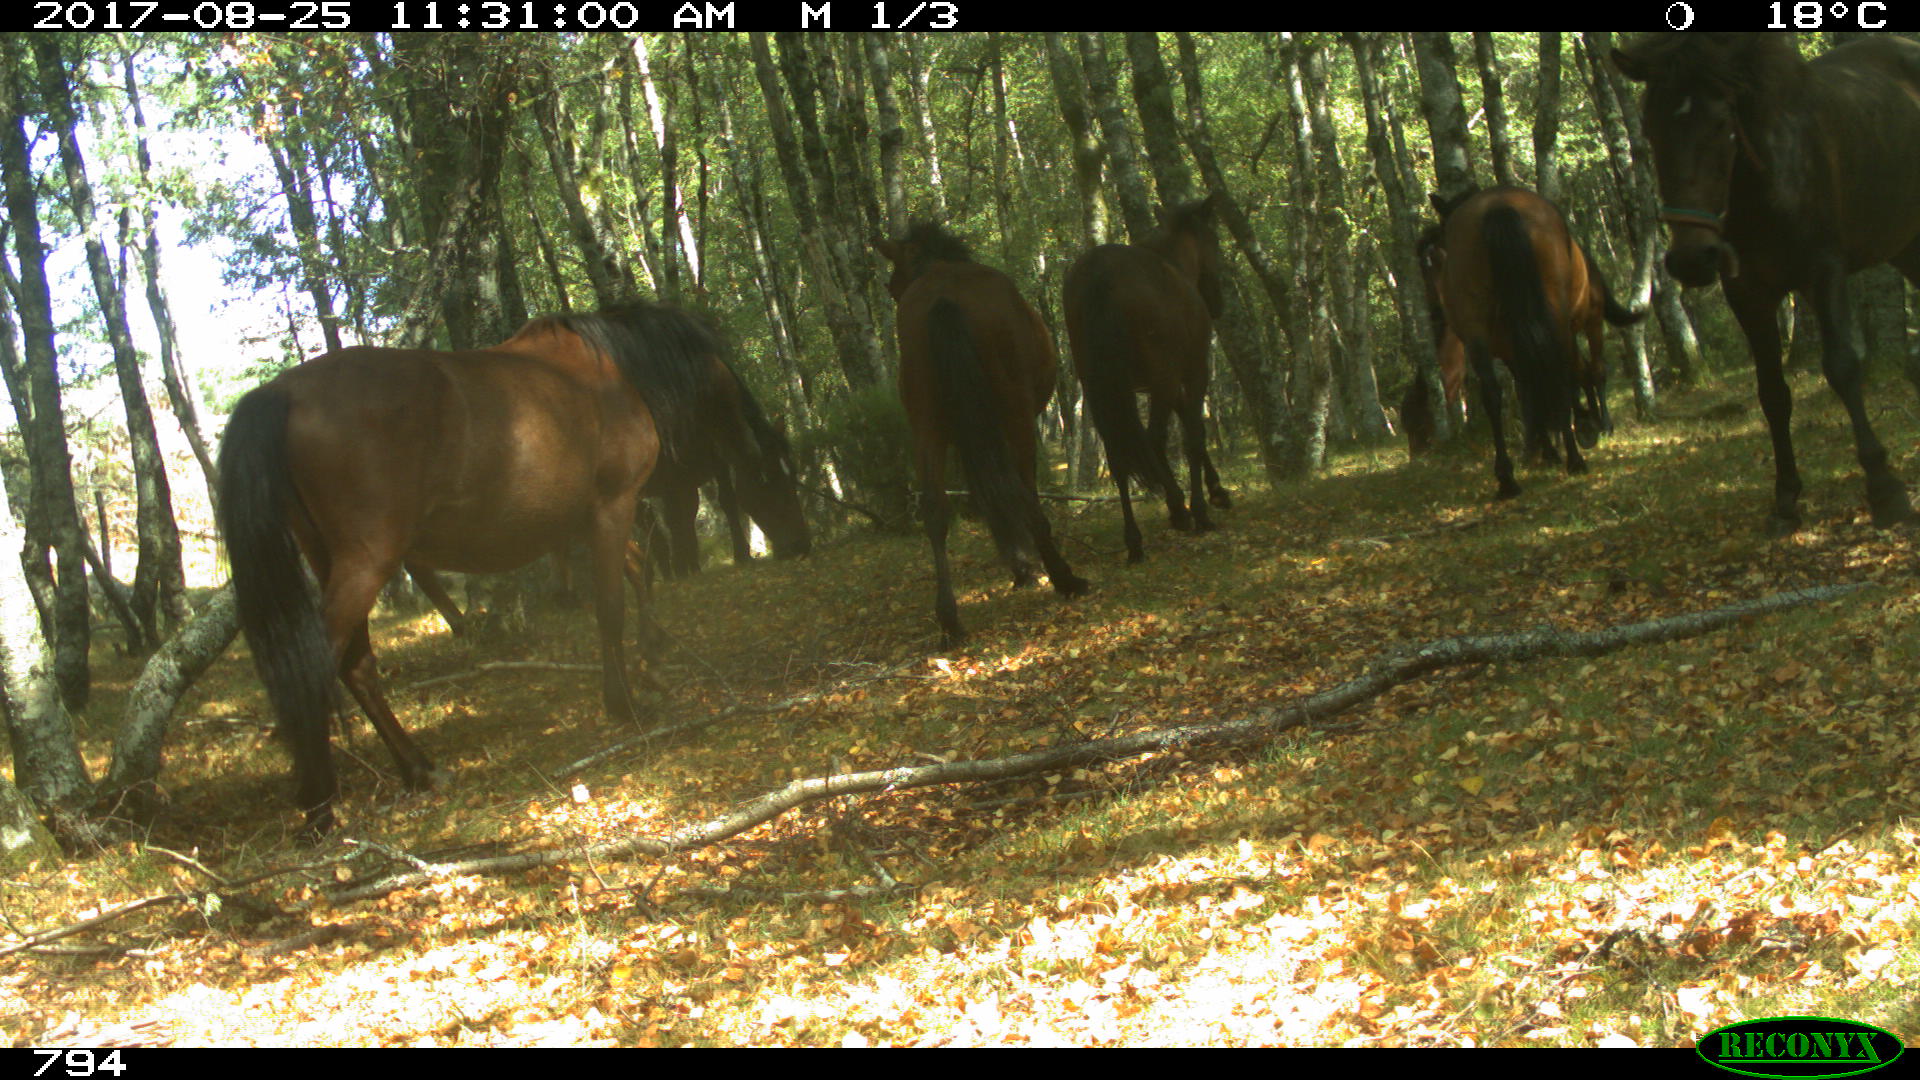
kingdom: Animalia
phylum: Chordata
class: Mammalia
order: Perissodactyla
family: Equidae
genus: Equus
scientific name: Equus caballus
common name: Horse
